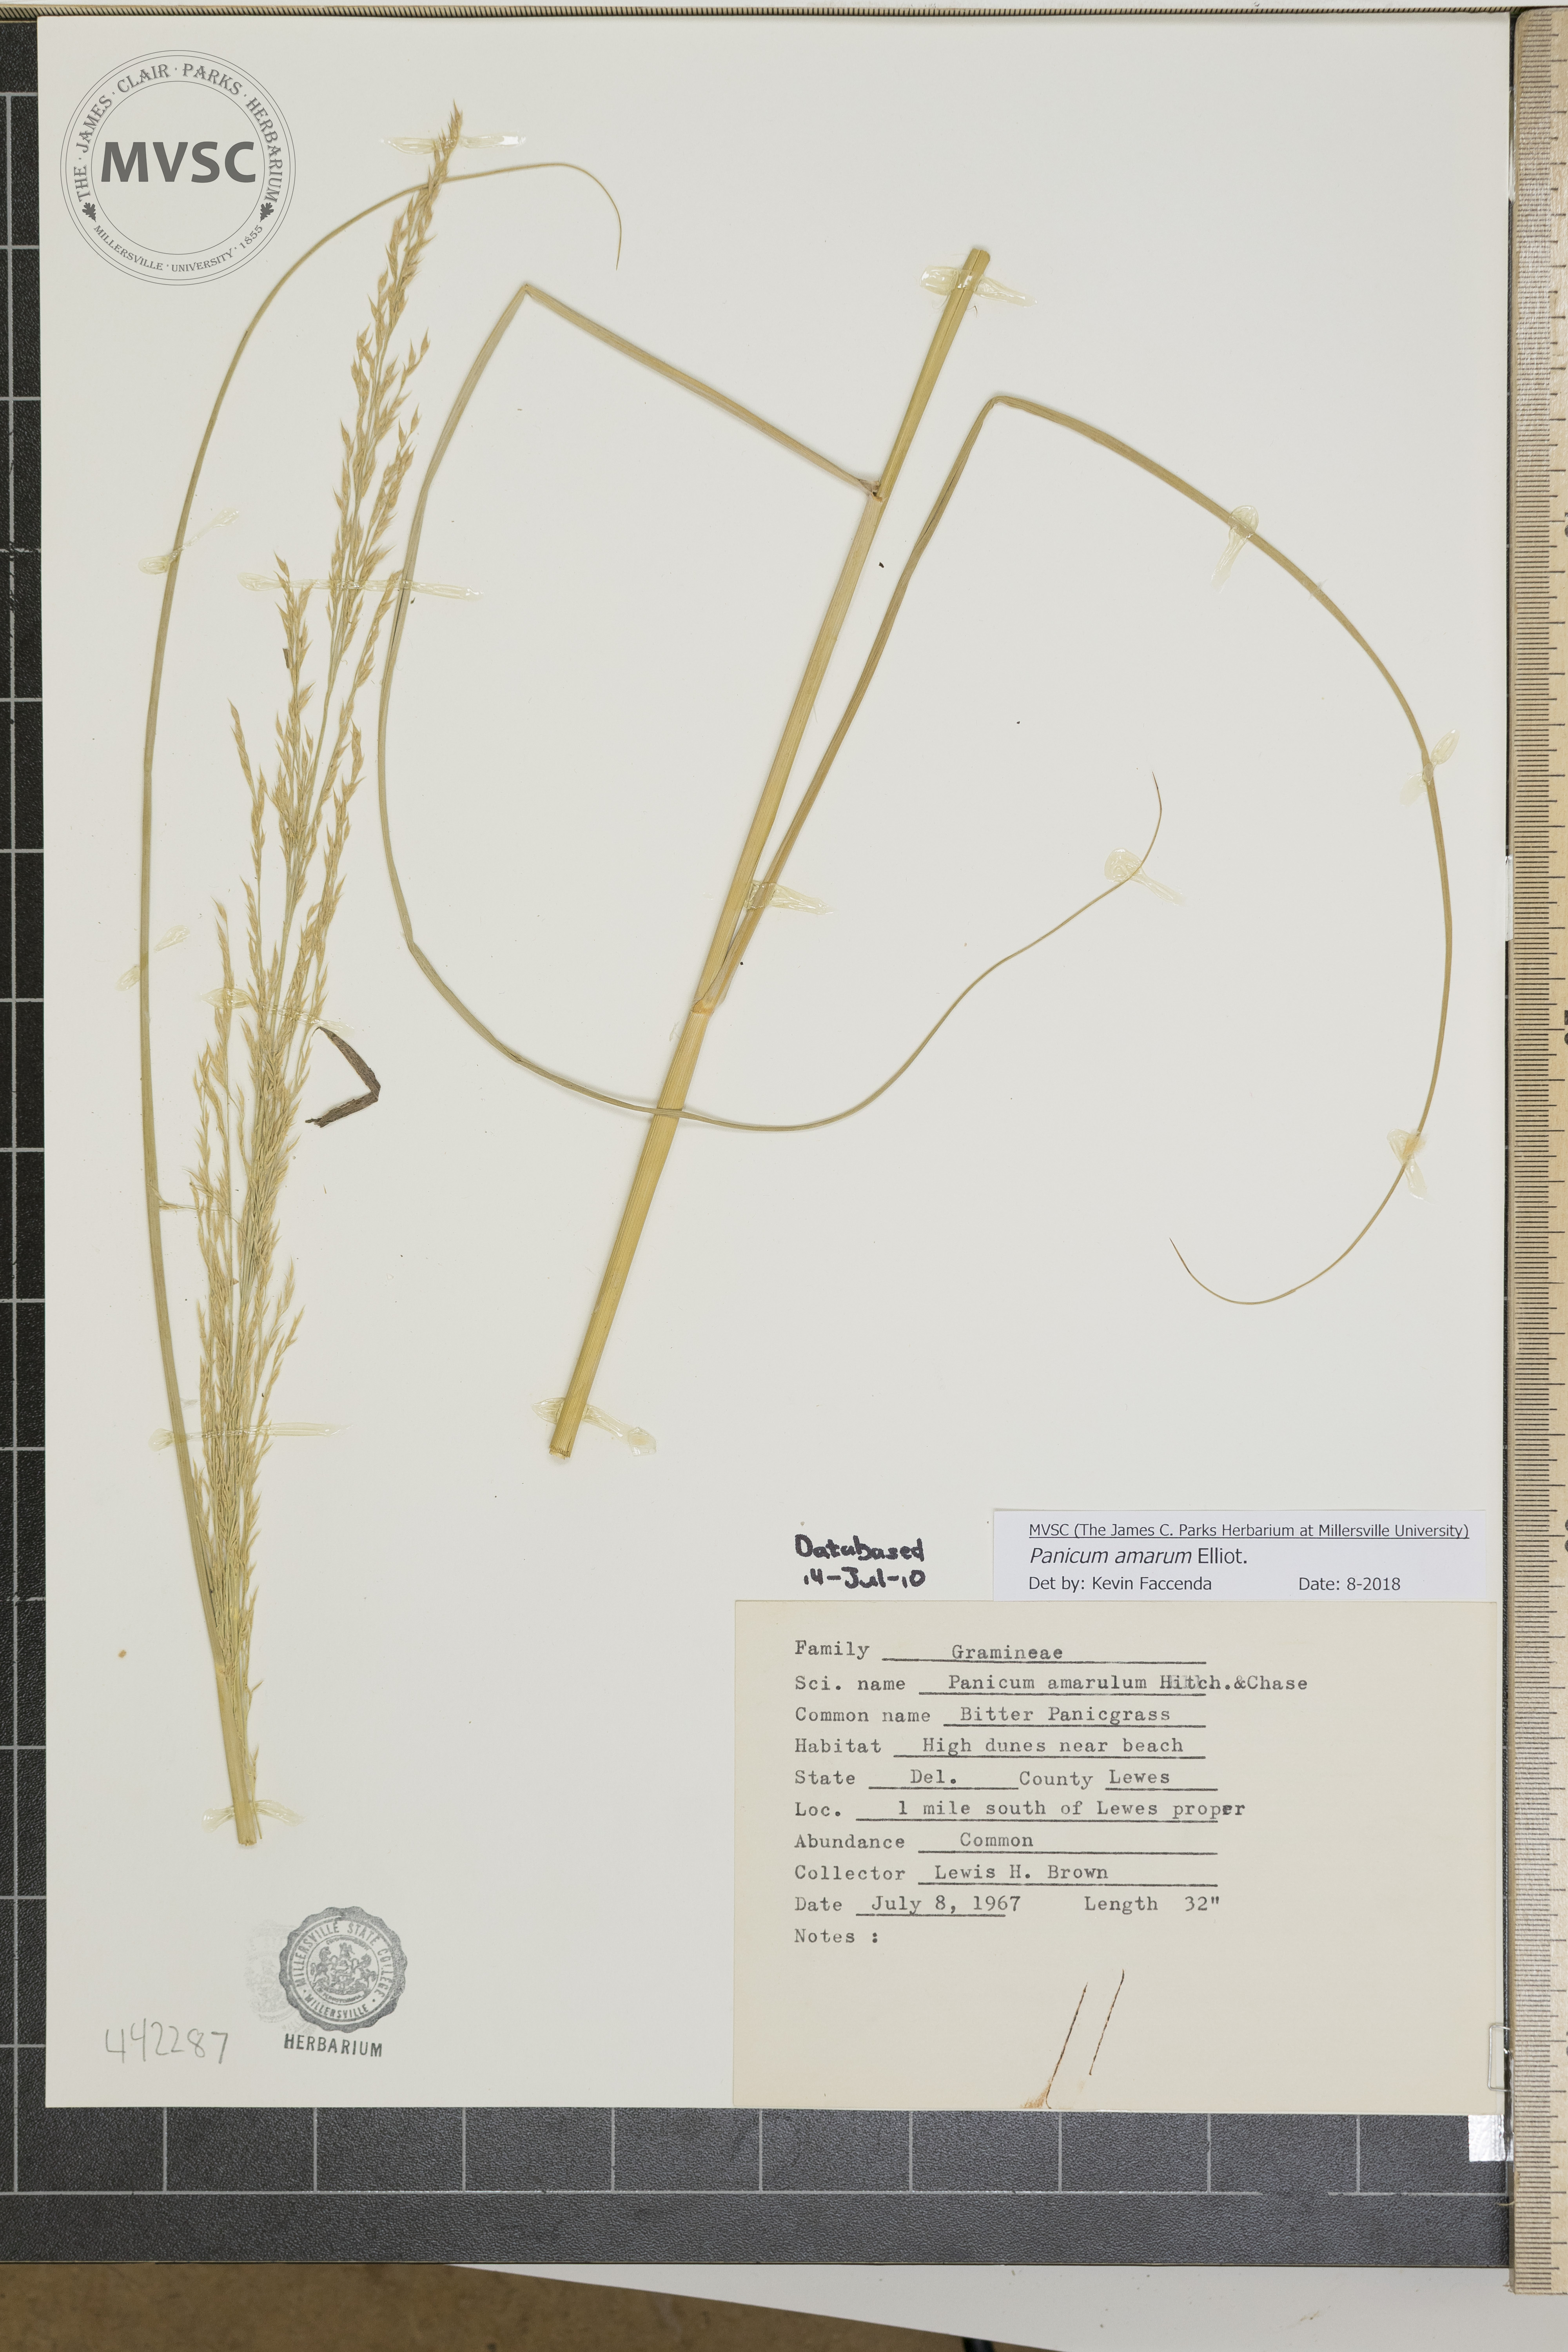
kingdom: Plantae
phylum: Tracheophyta
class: Liliopsida
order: Poales
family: Poaceae
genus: Panicum
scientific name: Panicum amarum
